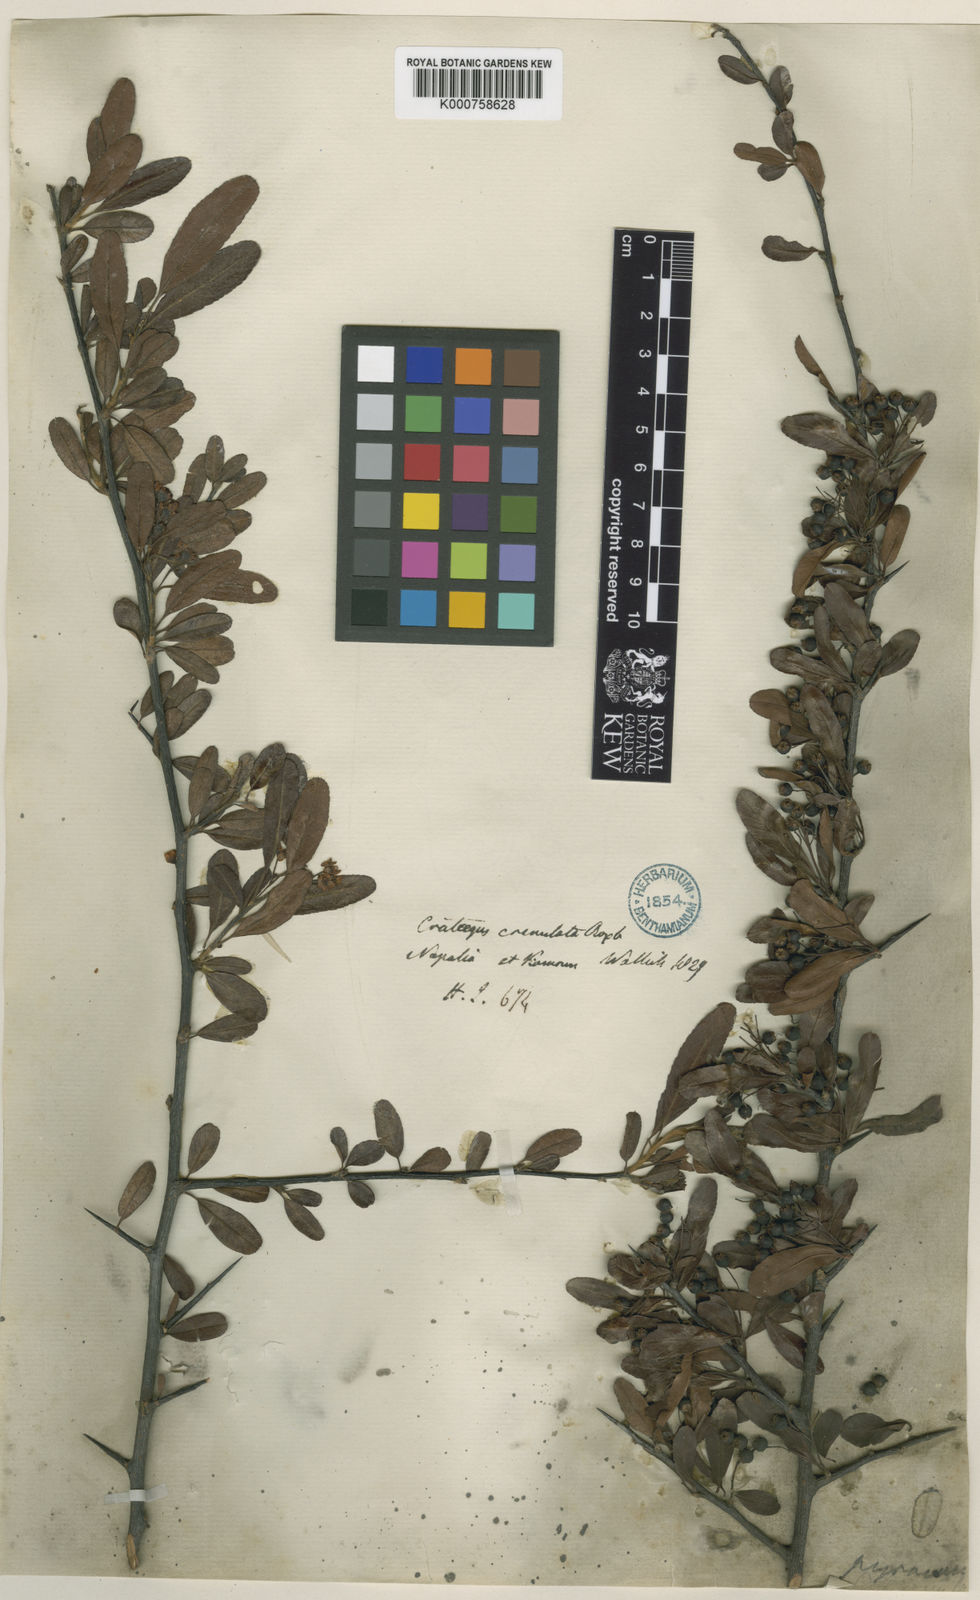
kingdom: Plantae
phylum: Tracheophyta
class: Magnoliopsida
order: Rosales
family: Rosaceae
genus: Pyracantha
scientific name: Pyracantha crenulata
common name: Nepalese firethorn
